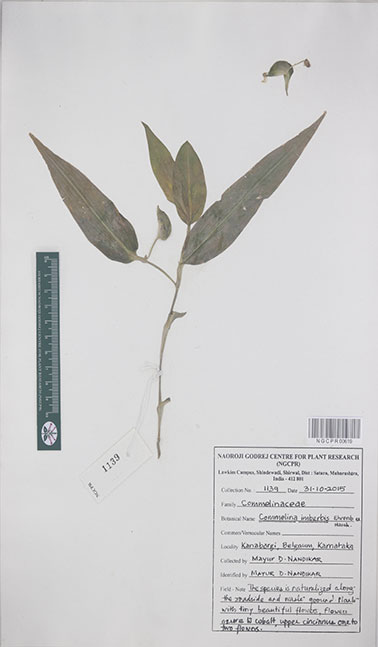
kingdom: Plantae
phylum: Tracheophyta
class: Liliopsida
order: Commelinales
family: Commelinaceae
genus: Commelina
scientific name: Commelina imberbis
